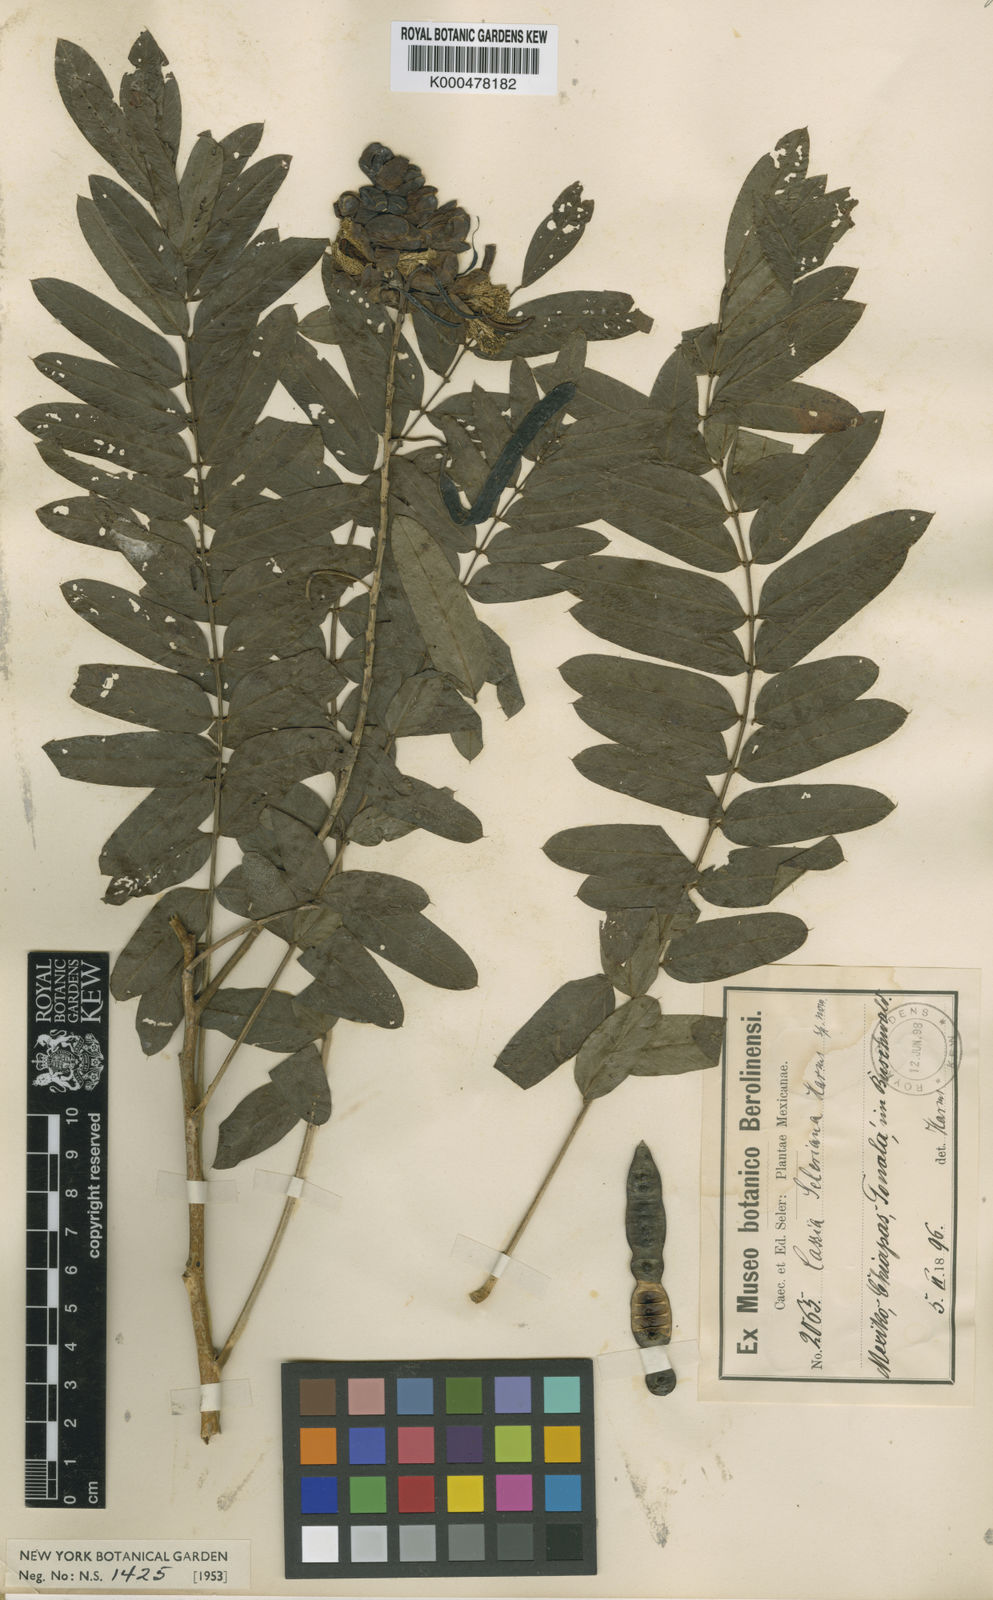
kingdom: Plantae
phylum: Tracheophyta
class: Magnoliopsida
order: Fabales
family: Fabaceae
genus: Senna
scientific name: Senna nicaraguensis
